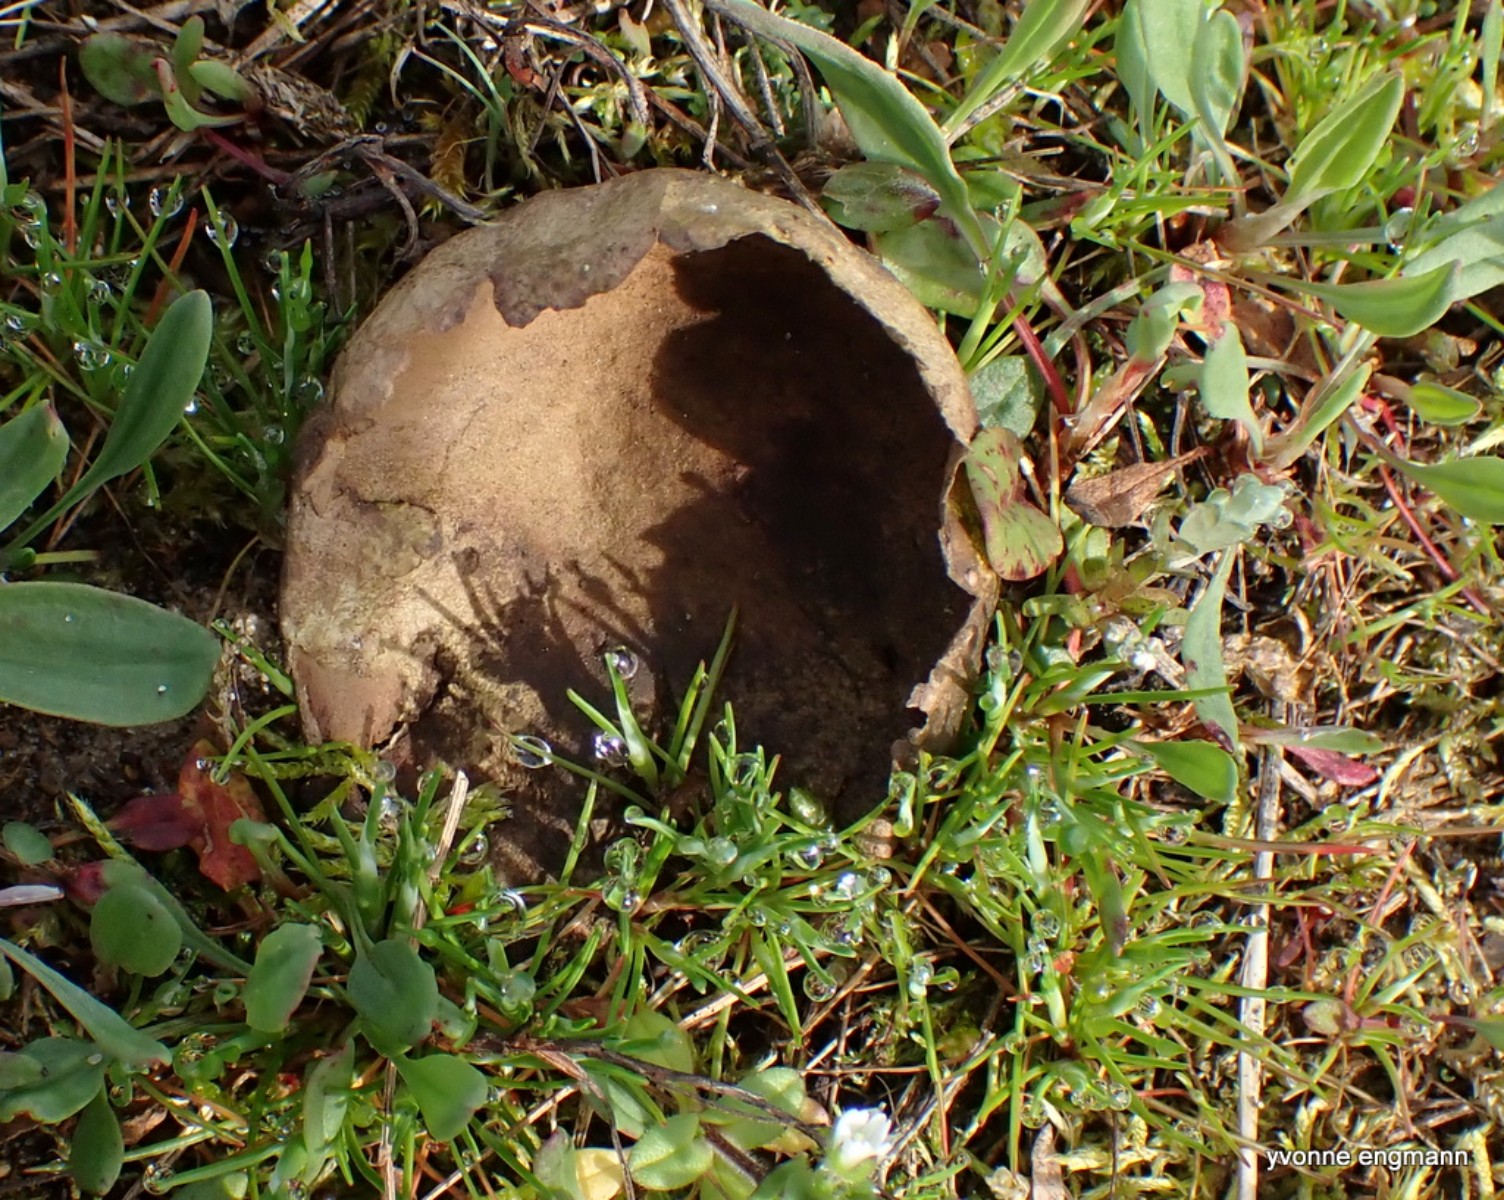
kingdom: Fungi
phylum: Basidiomycota
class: Agaricomycetes
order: Agaricales
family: Lycoperdaceae
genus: Bovistella
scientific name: Bovistella utriformis
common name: skællet støvbold
